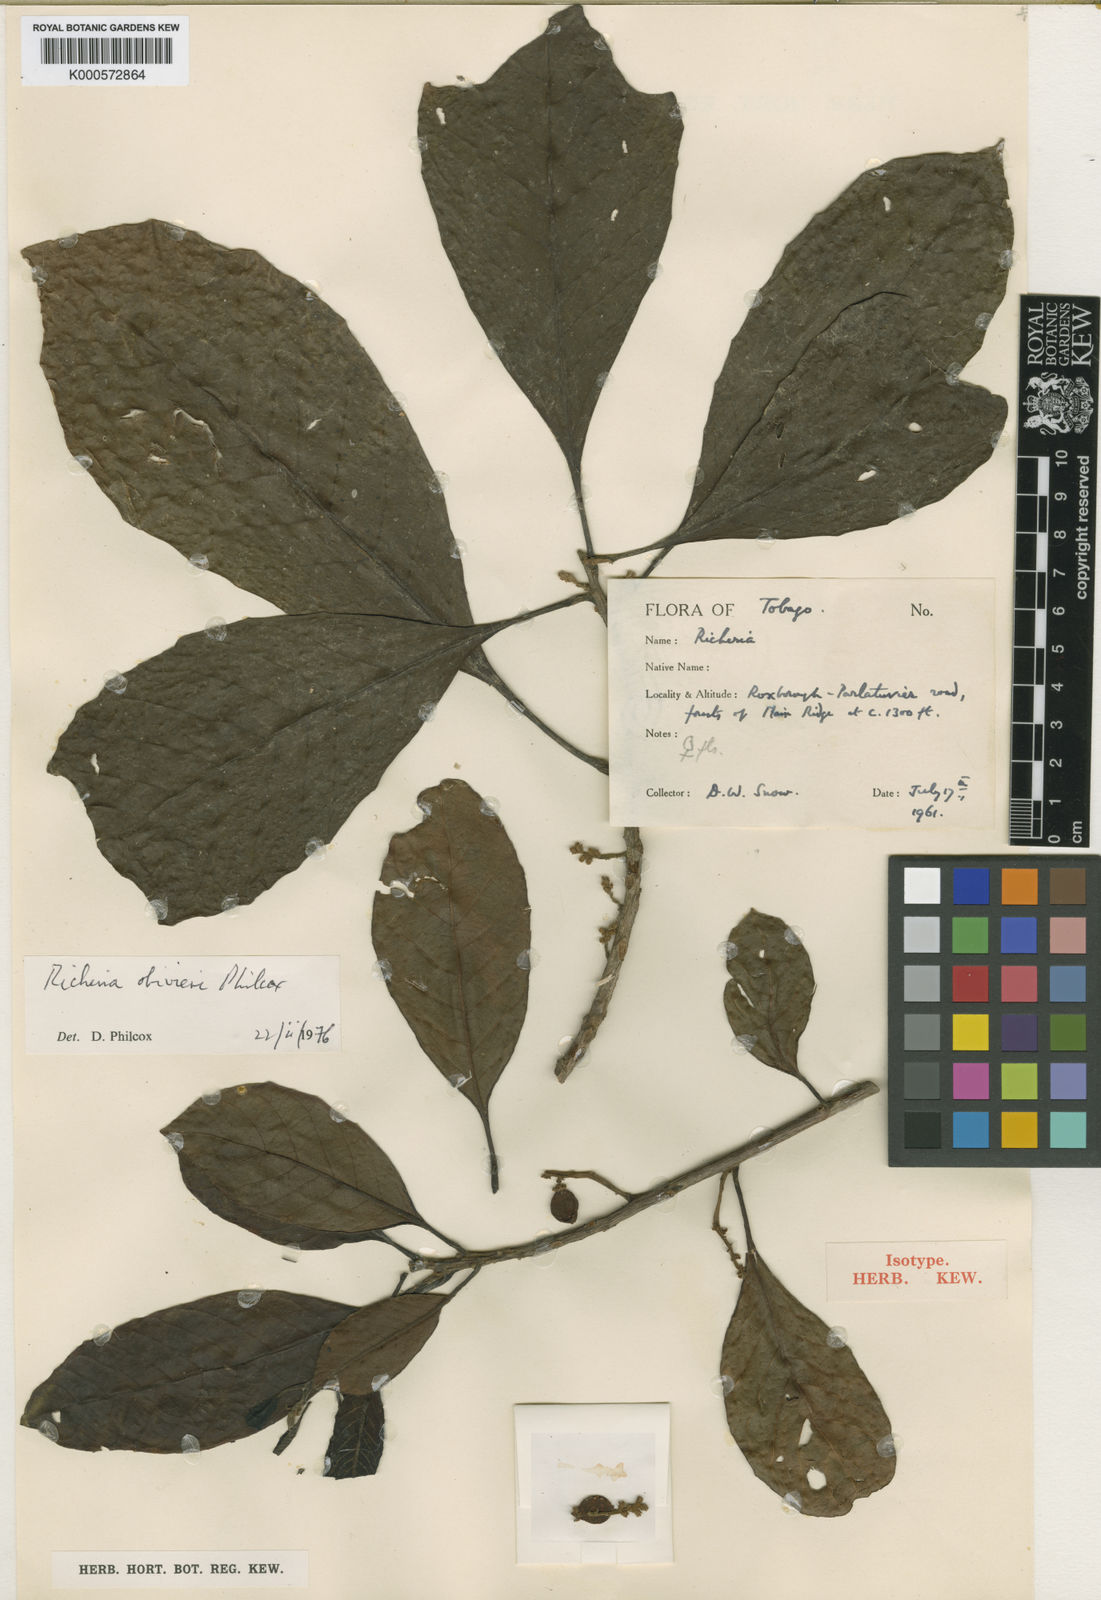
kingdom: Plantae
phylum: Tracheophyta
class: Magnoliopsida
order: Malpighiales
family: Phyllanthaceae
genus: Richeria
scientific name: Richeria grandis
